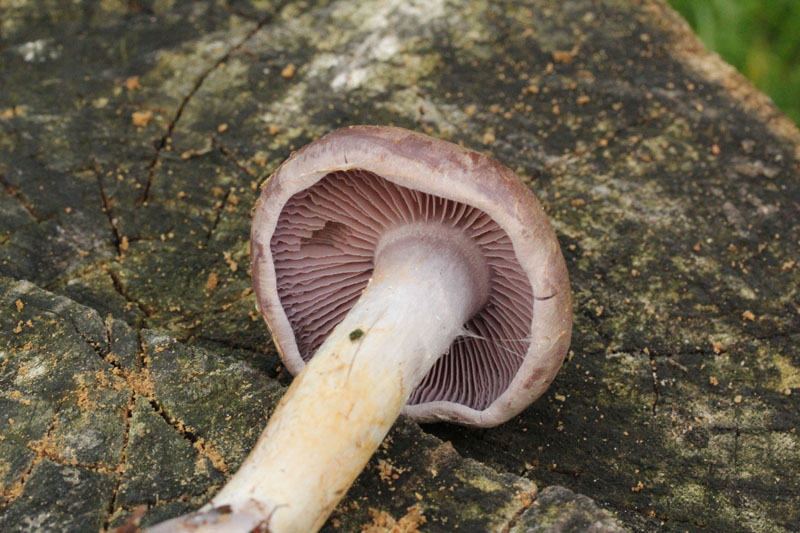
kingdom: Fungi
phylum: Basidiomycota
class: Agaricomycetes
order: Agaricales
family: Cortinariaceae
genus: Cortinarius
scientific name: Cortinarius
